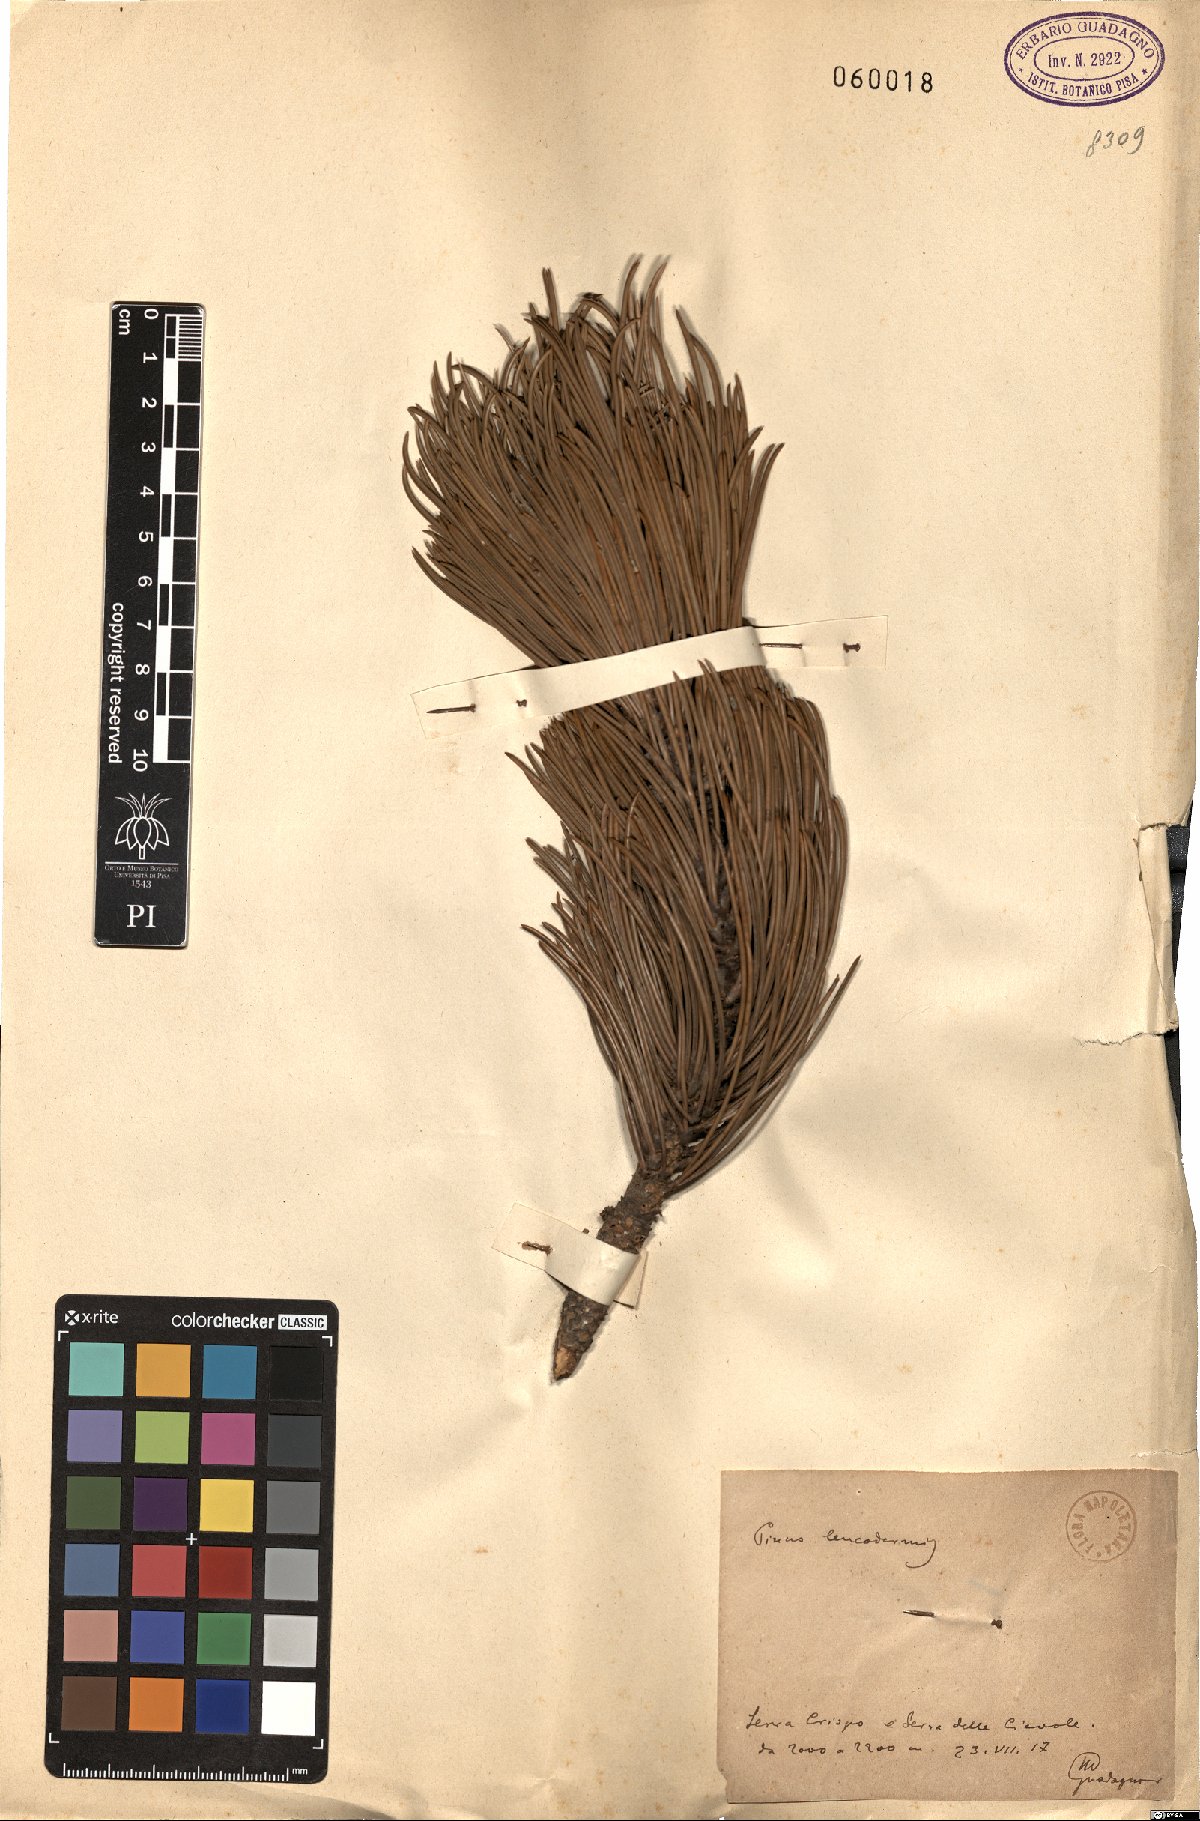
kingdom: Plantae
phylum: Tracheophyta
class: Pinopsida
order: Pinales
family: Pinaceae
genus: Pinus
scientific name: Pinus heldreichii
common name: Bosnian pine
